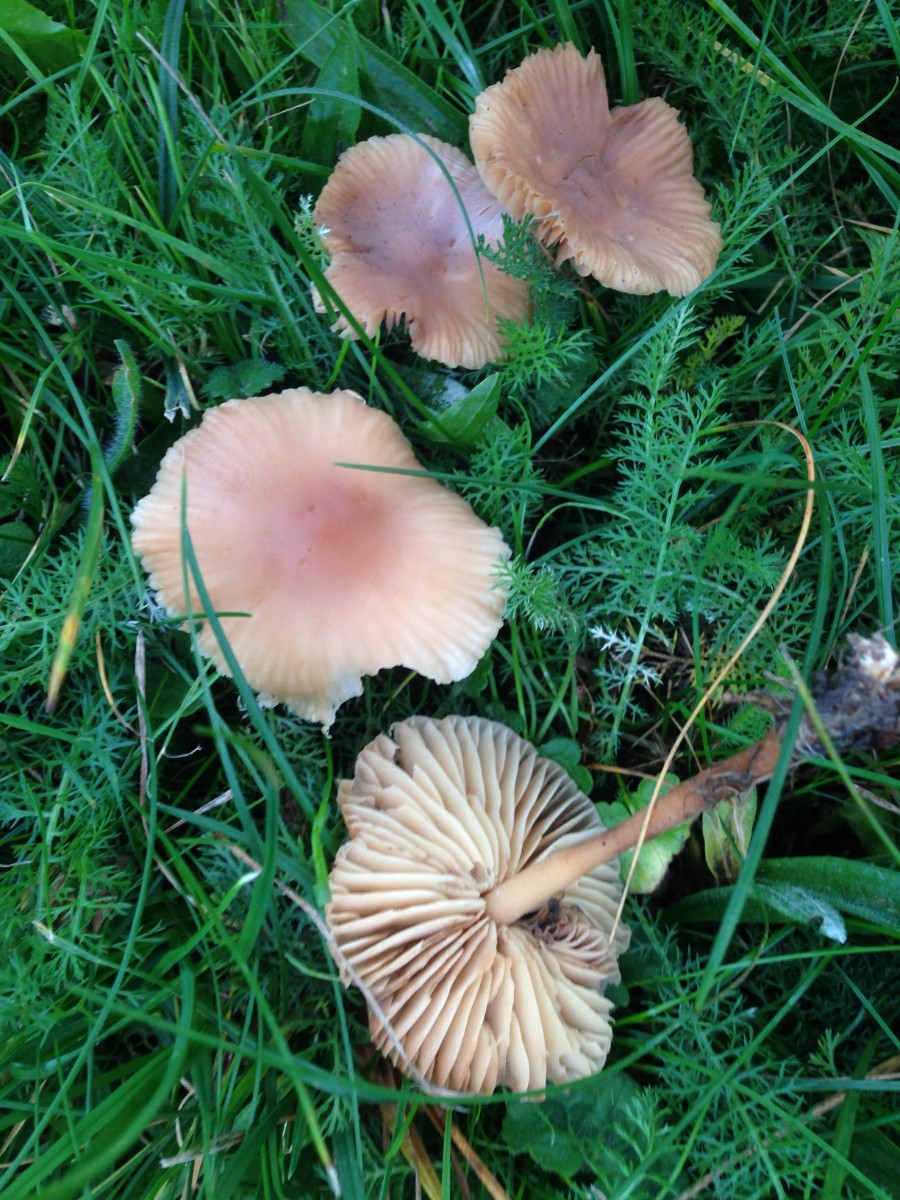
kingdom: Fungi
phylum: Basidiomycota
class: Agaricomycetes
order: Agaricales
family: Marasmiaceae
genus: Marasmius
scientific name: Marasmius oreades
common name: elledans-bruskhat
